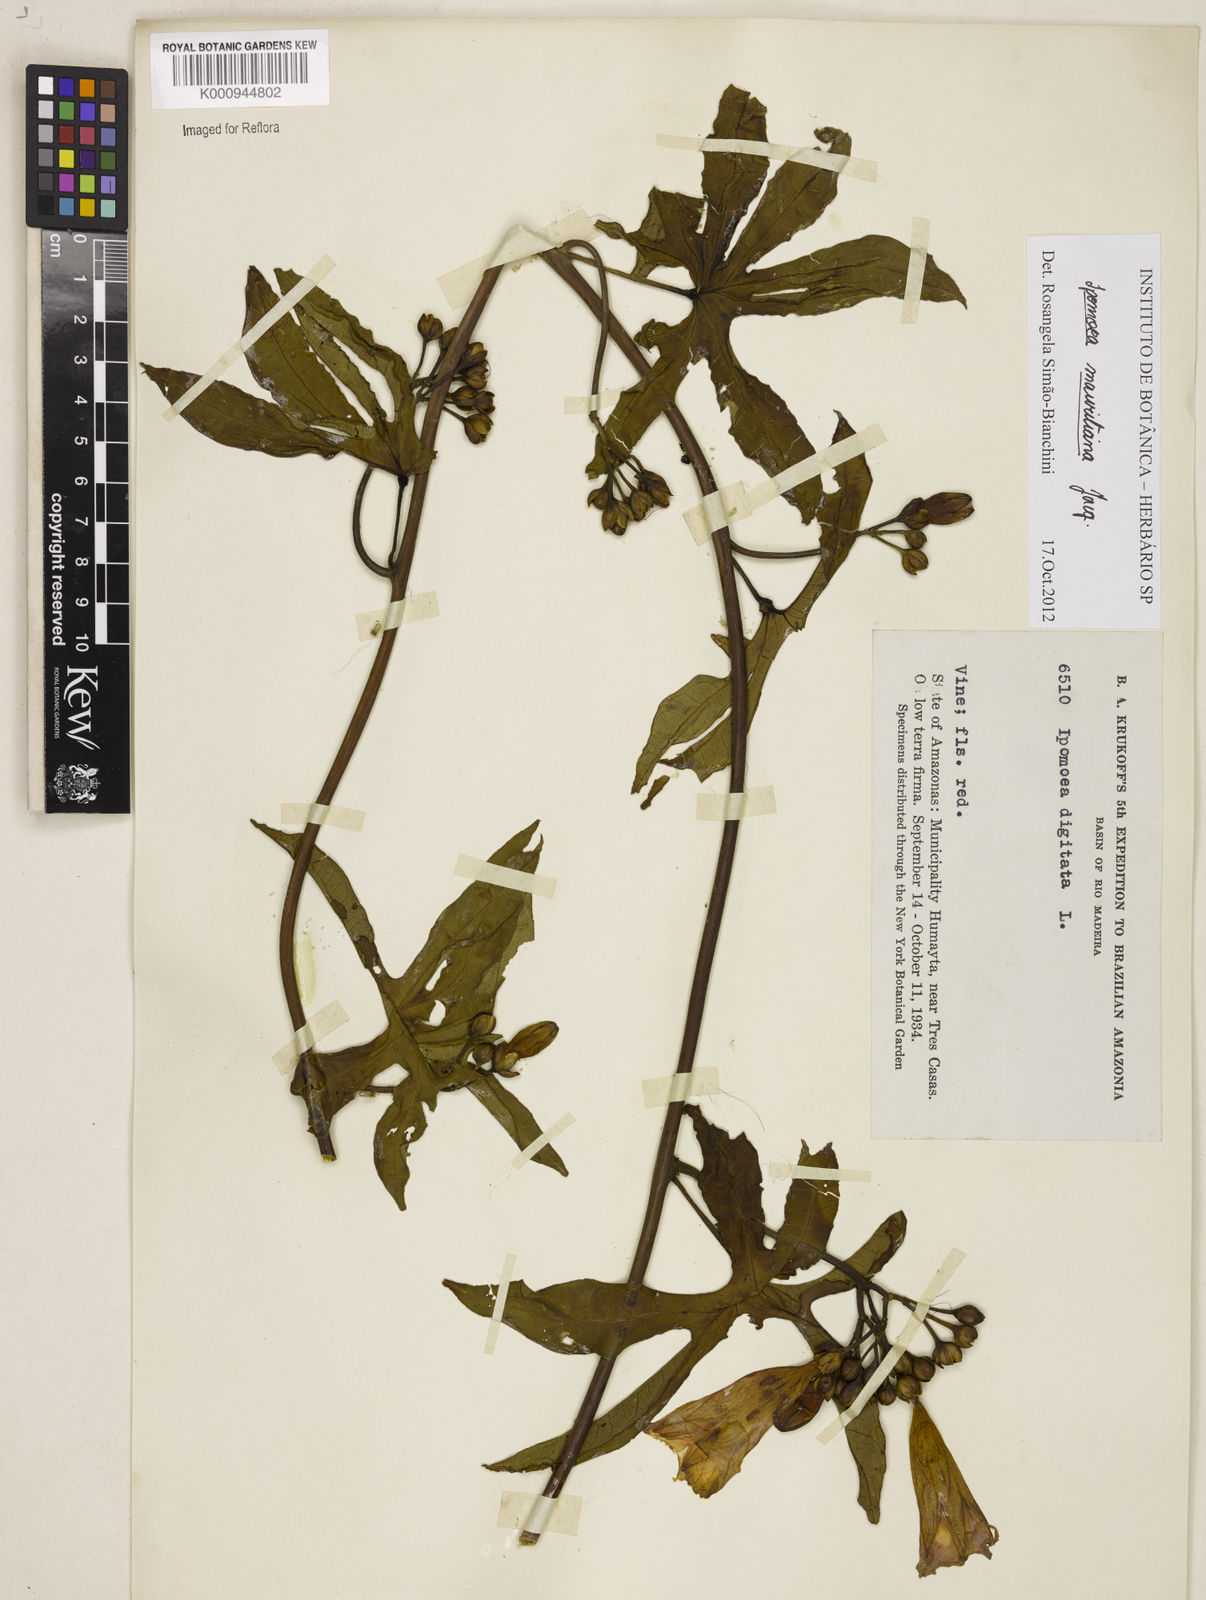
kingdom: Plantae
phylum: Tracheophyta
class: Magnoliopsida
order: Solanales
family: Convolvulaceae
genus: Ipomoea
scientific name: Ipomoea digitata
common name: Finger-leaf morning-glory
